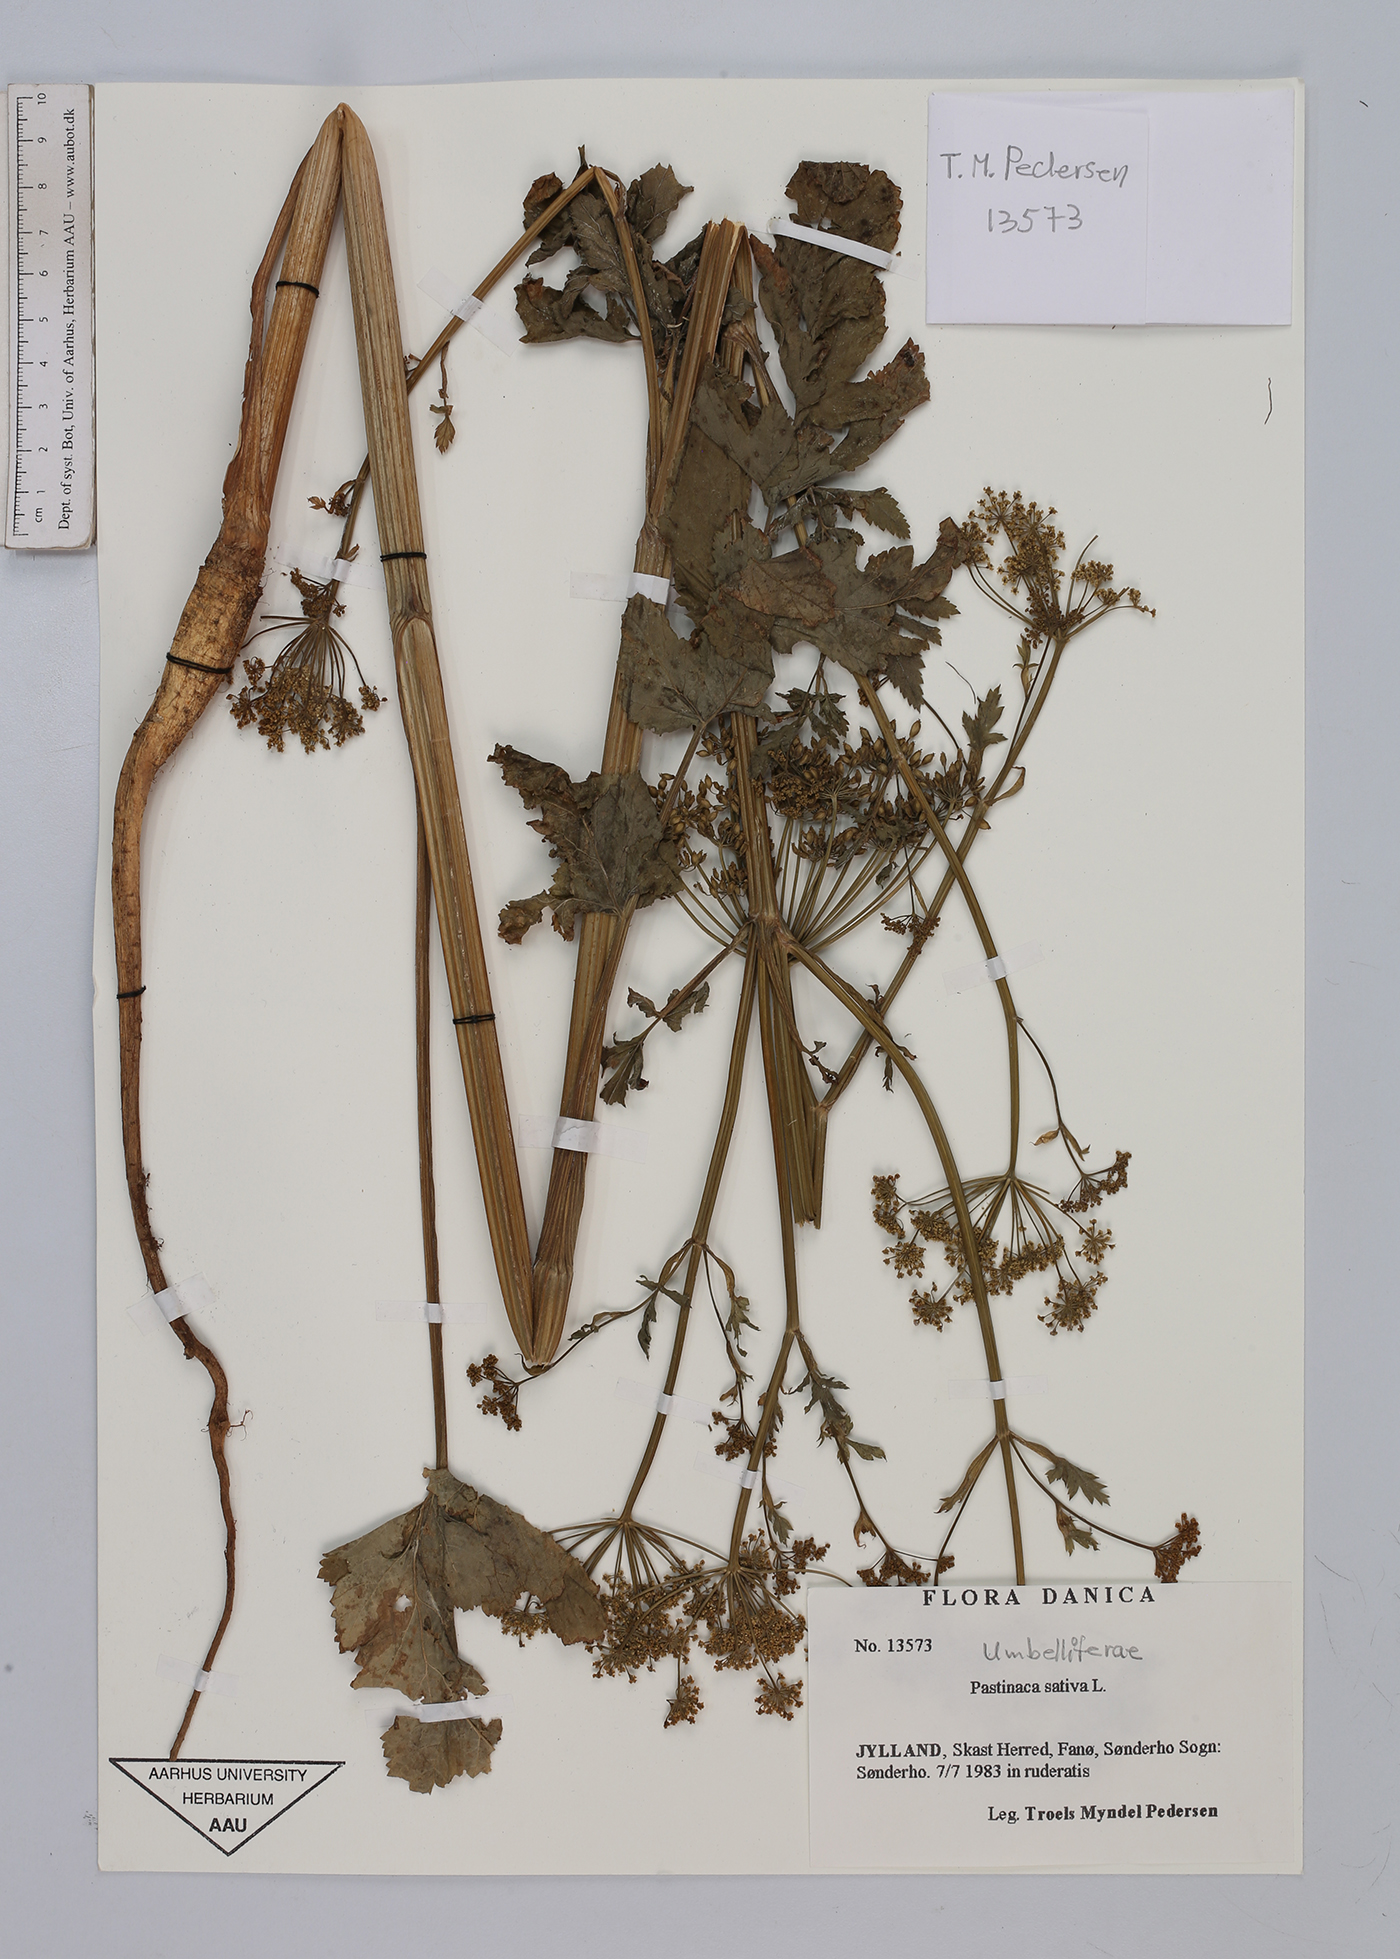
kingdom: Plantae
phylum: Tracheophyta
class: Magnoliopsida
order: Apiales
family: Apiaceae
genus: Pastinaca
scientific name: Pastinaca sativa
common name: Wild parsnip
